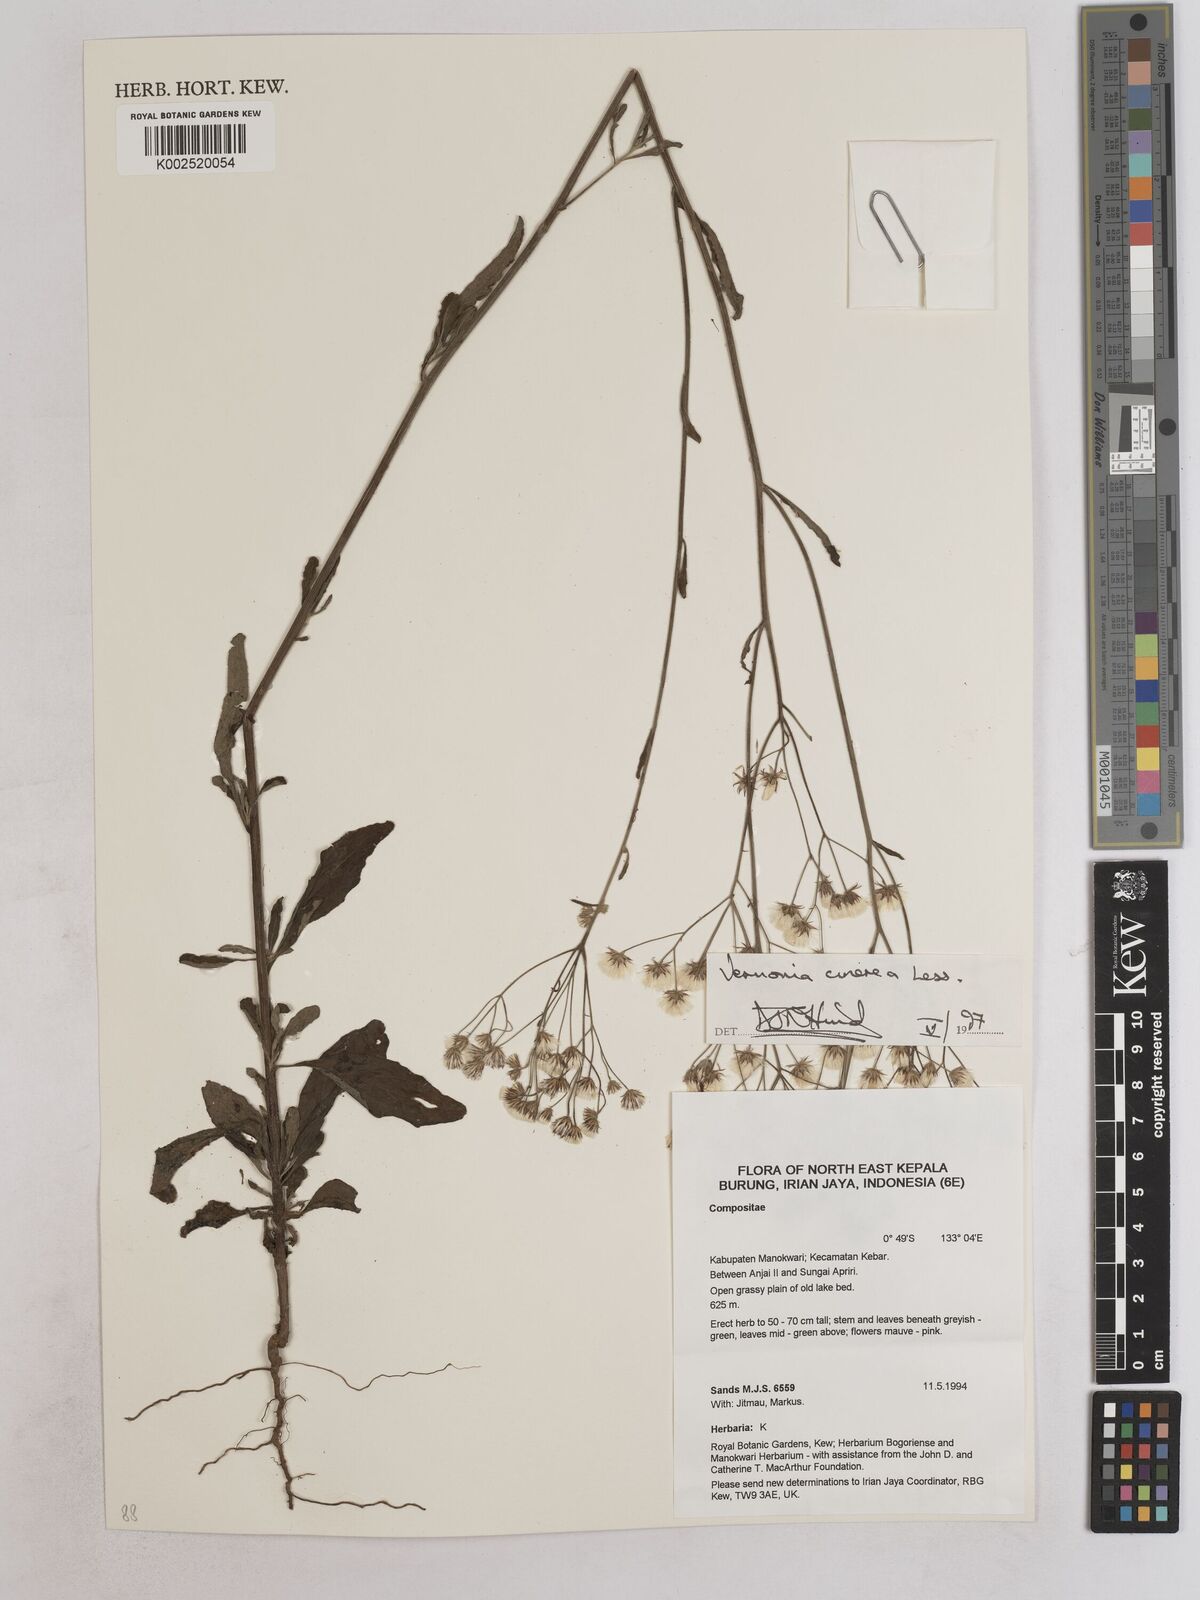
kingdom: Plantae
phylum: Tracheophyta
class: Magnoliopsida
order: Asterales
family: Asteraceae
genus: Cyanthillium
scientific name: Cyanthillium cinereum
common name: Little ironweed
